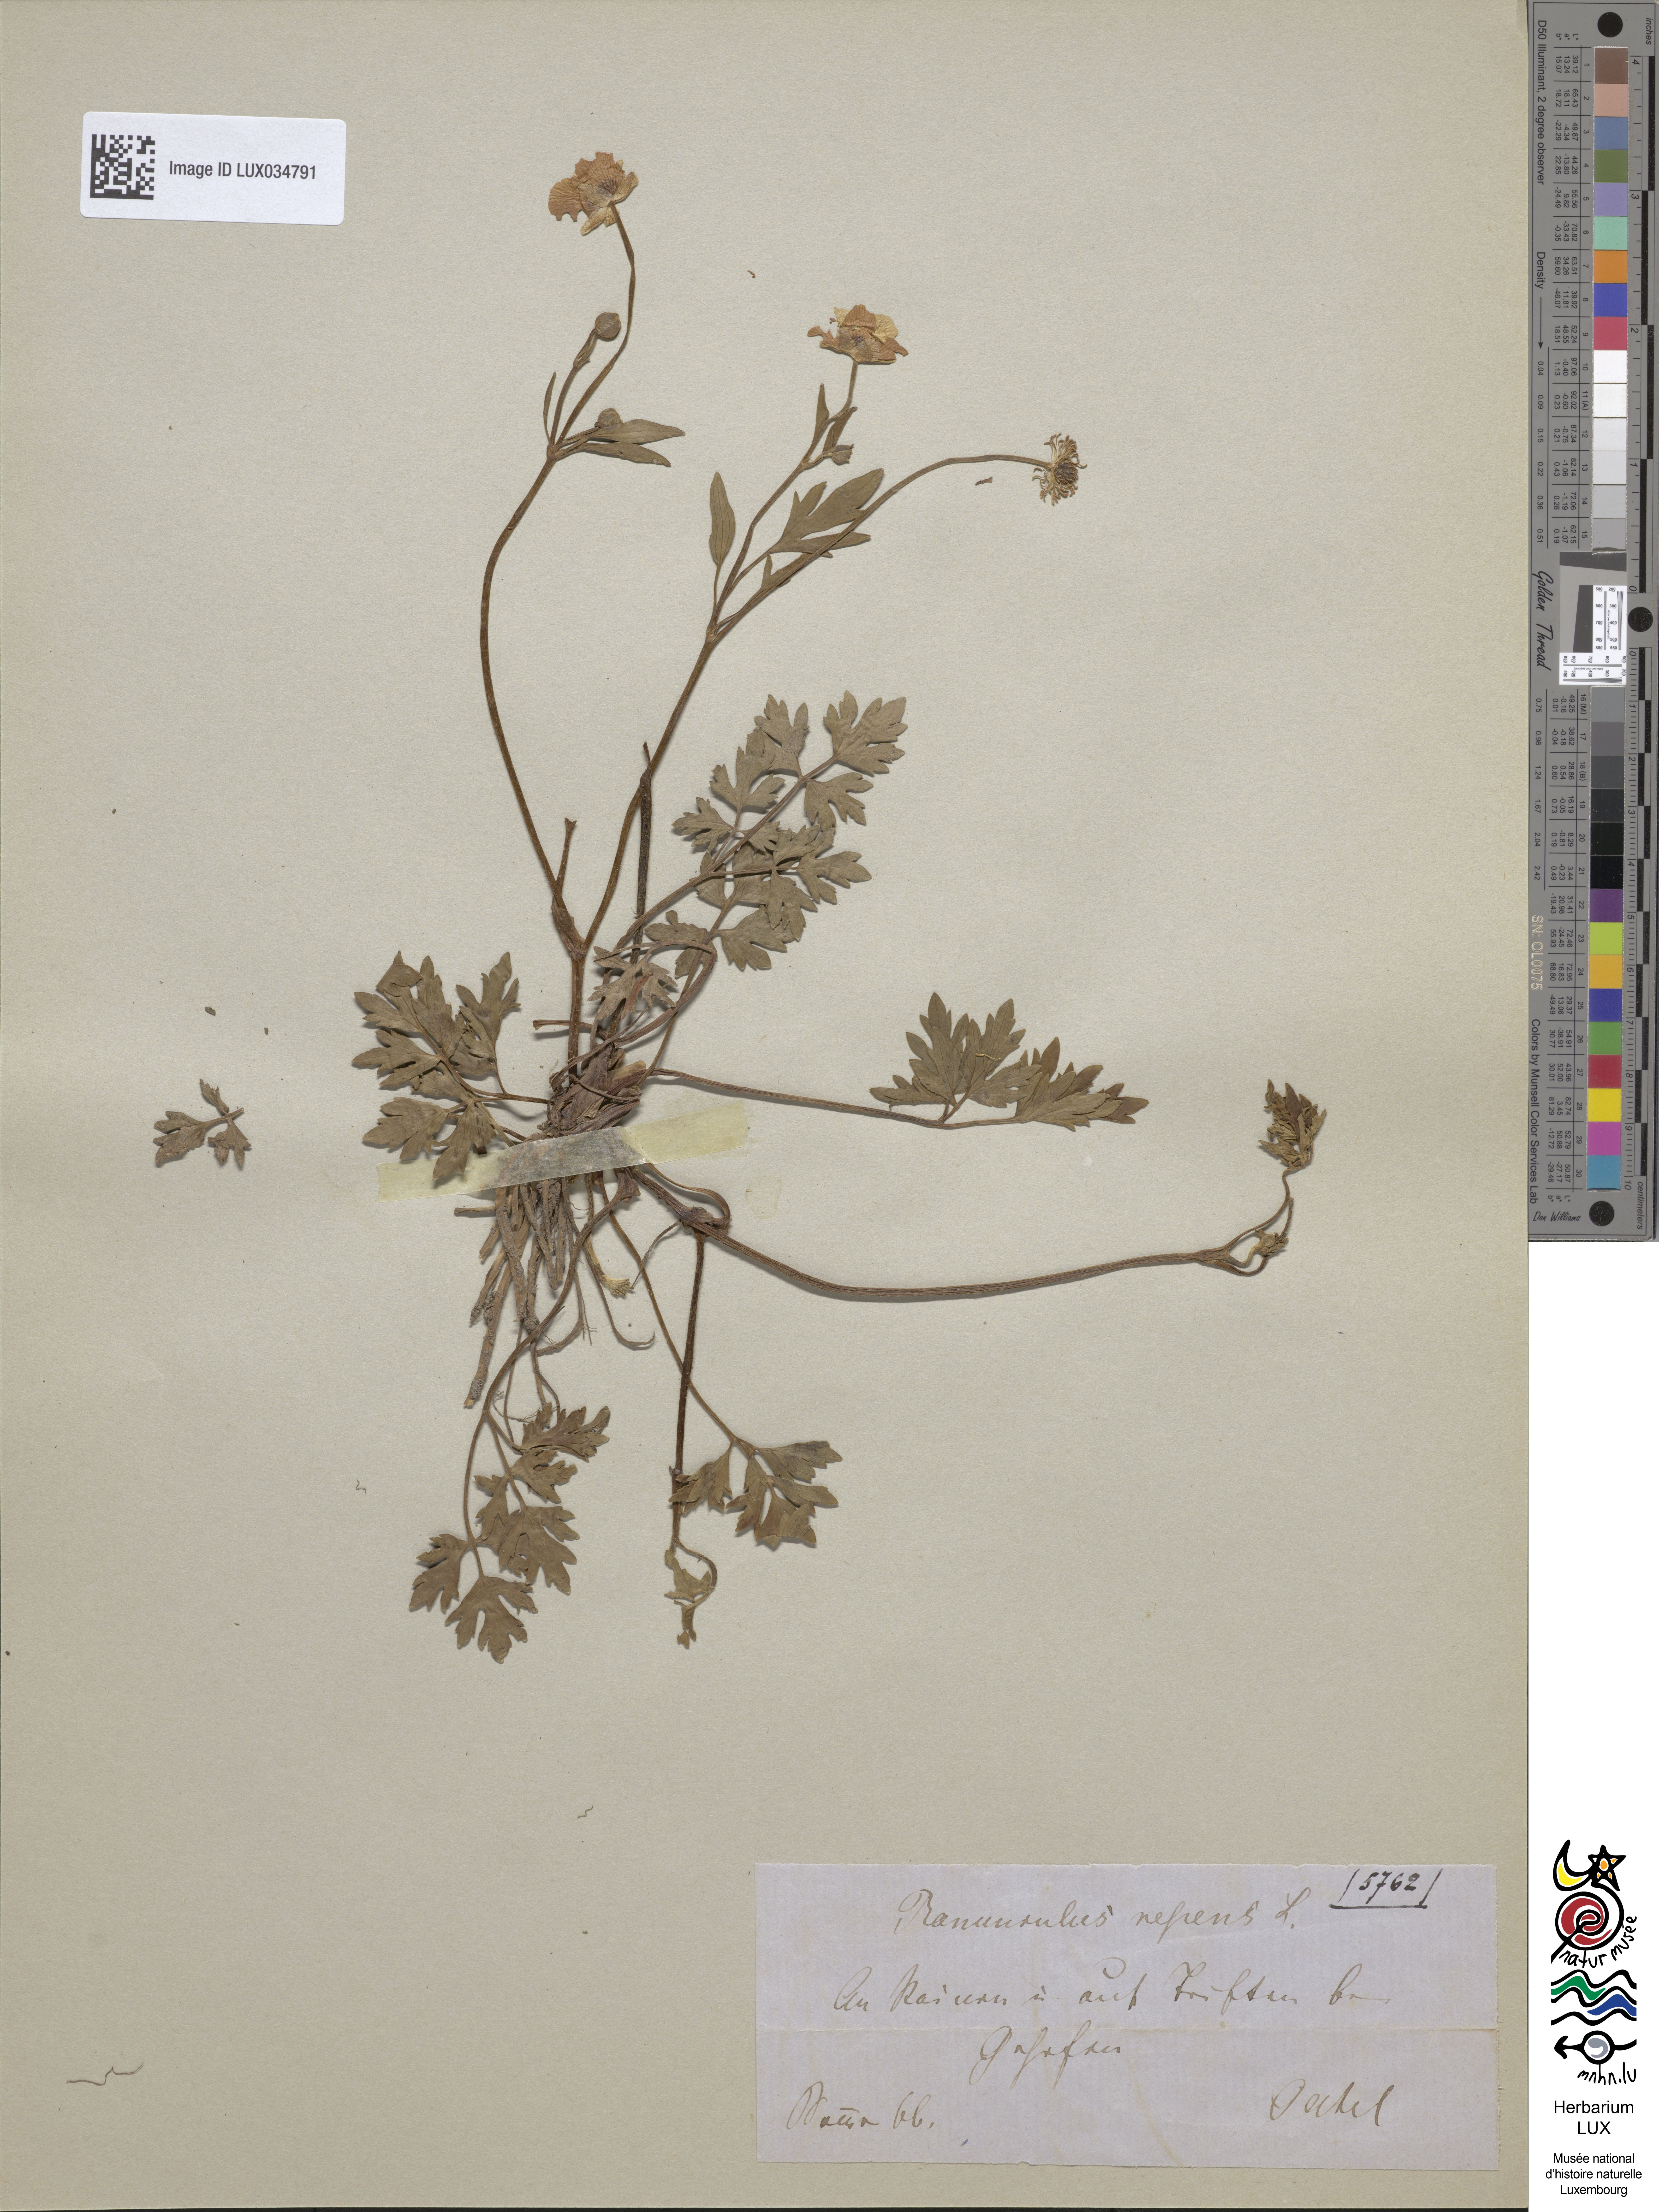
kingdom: Plantae
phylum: Tracheophyta
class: Magnoliopsida
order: Ranunculales
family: Ranunculaceae
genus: Ranunculus
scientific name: Ranunculus repens
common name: Creeping buttercup
